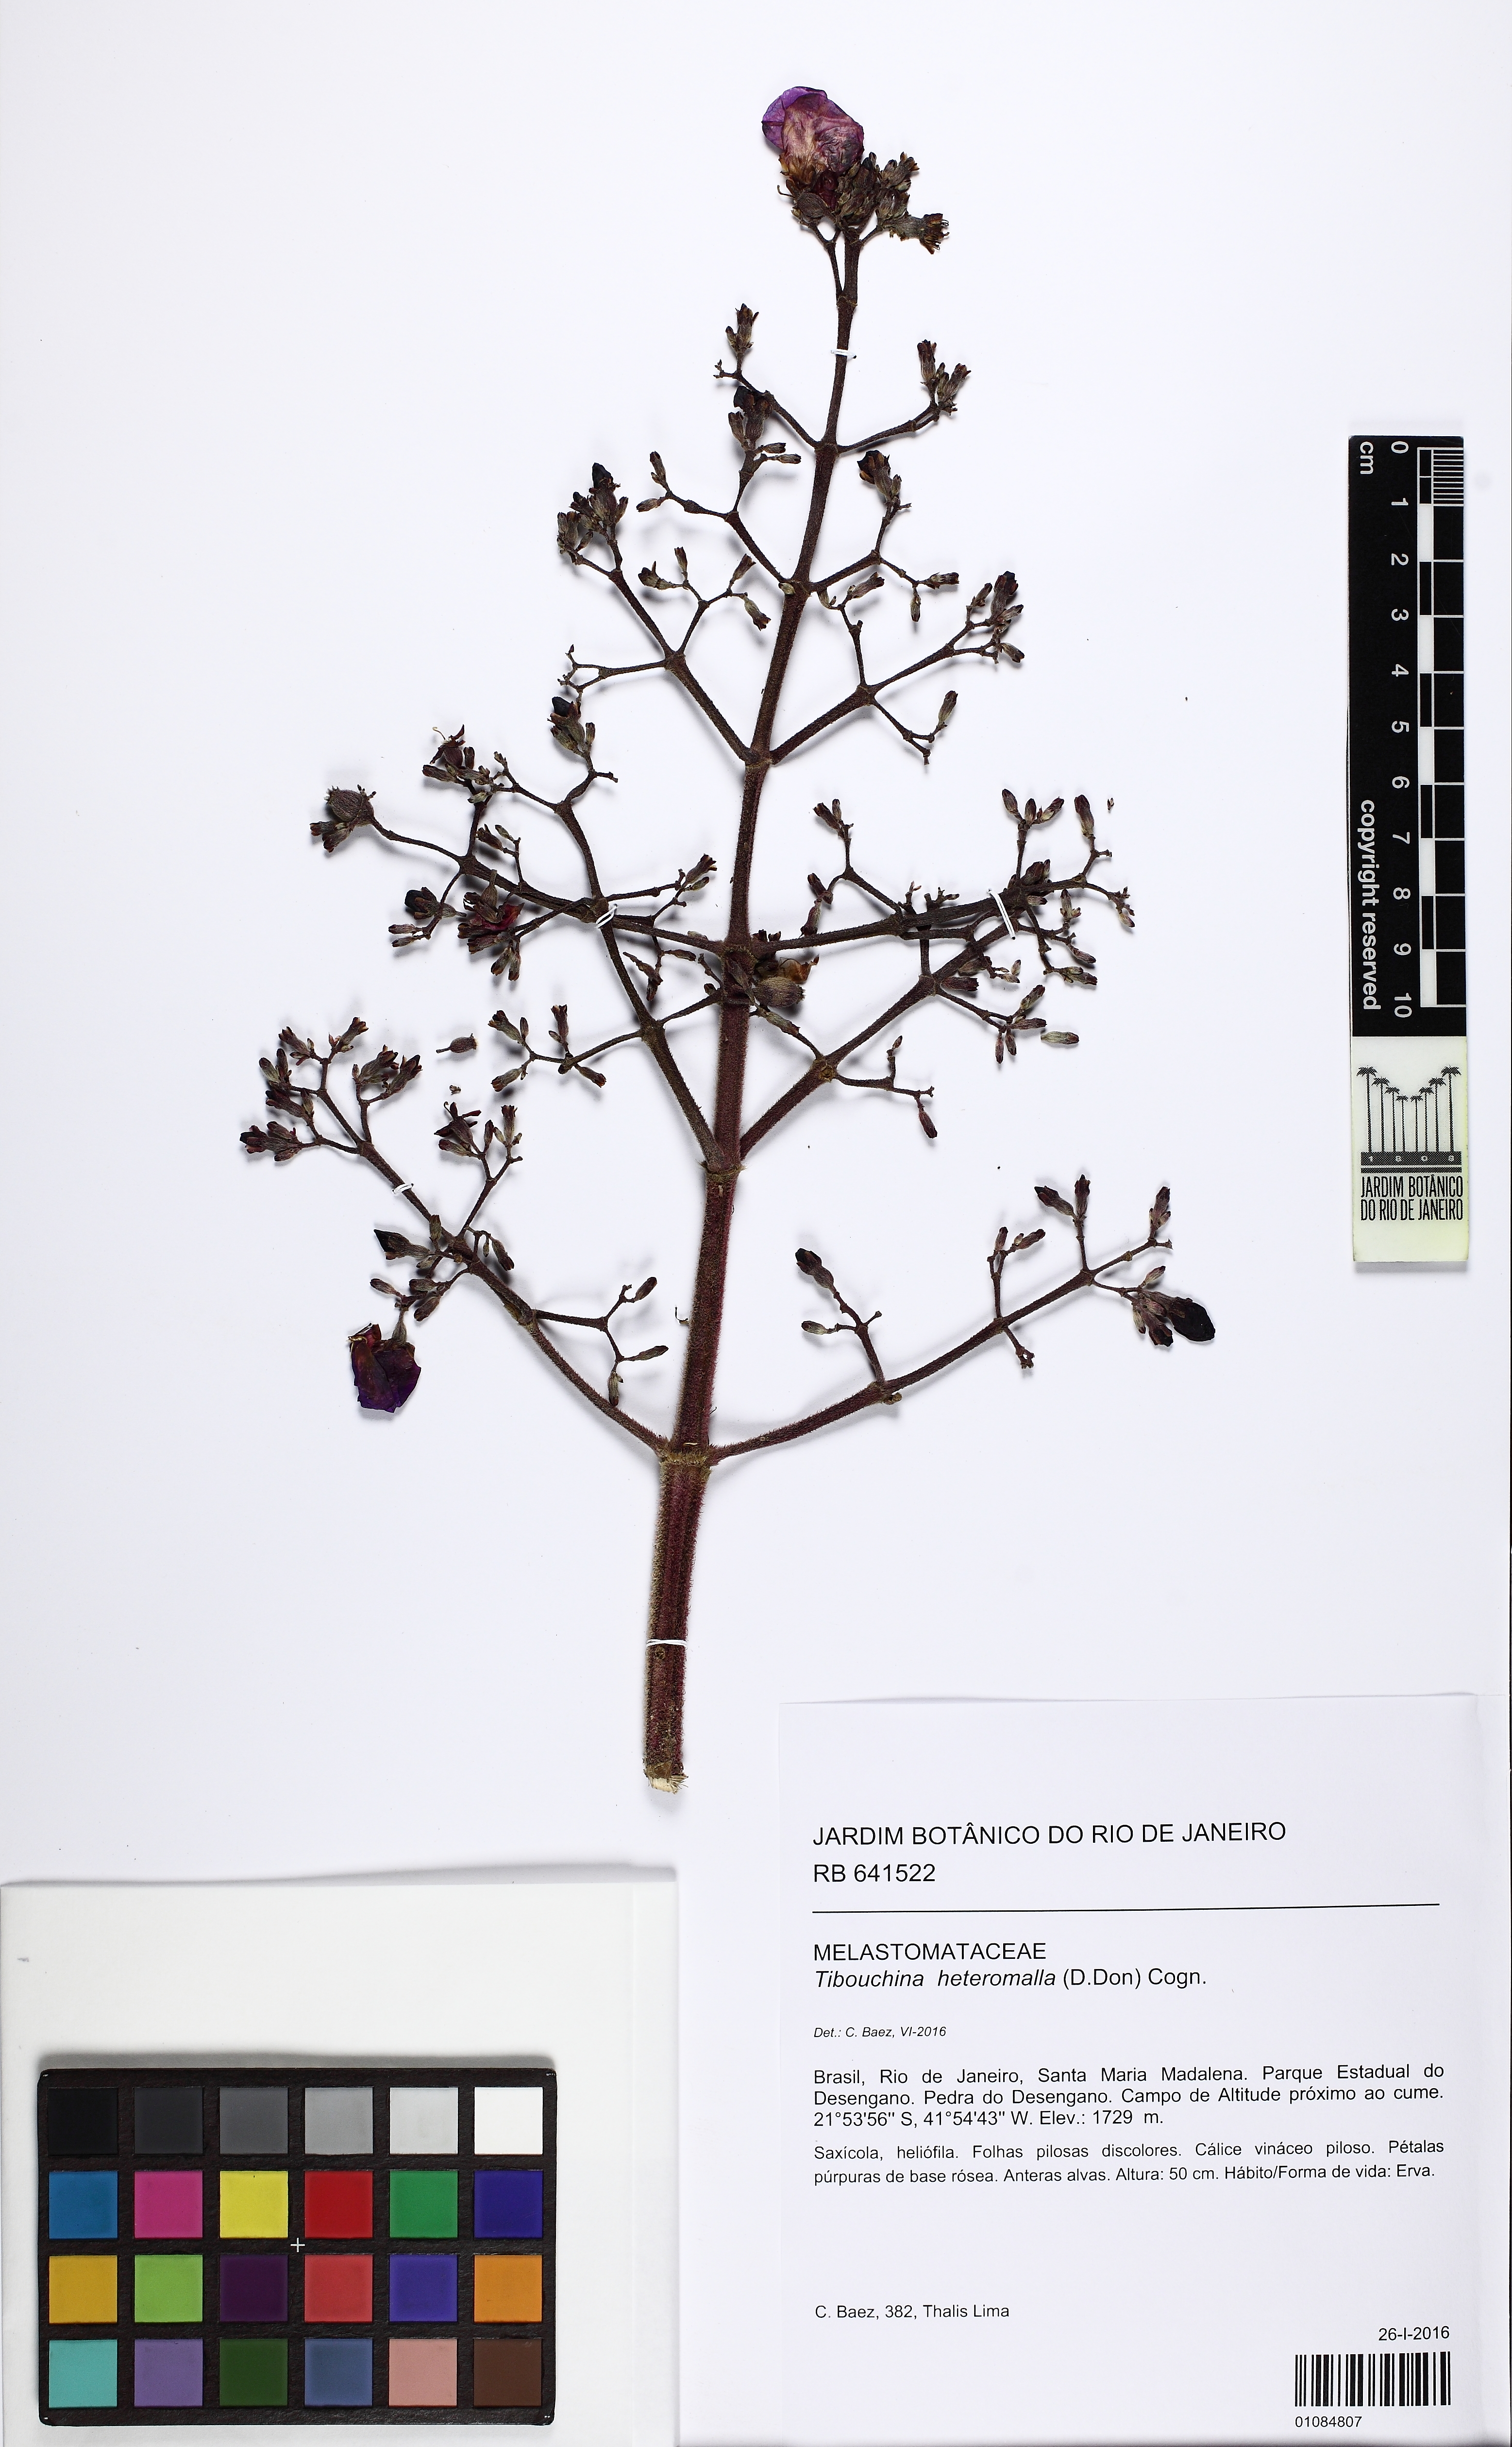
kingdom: Plantae
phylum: Tracheophyta
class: Magnoliopsida
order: Myrtales
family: Melastomataceae
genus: Pleroma
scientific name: Pleroma heteromallum
